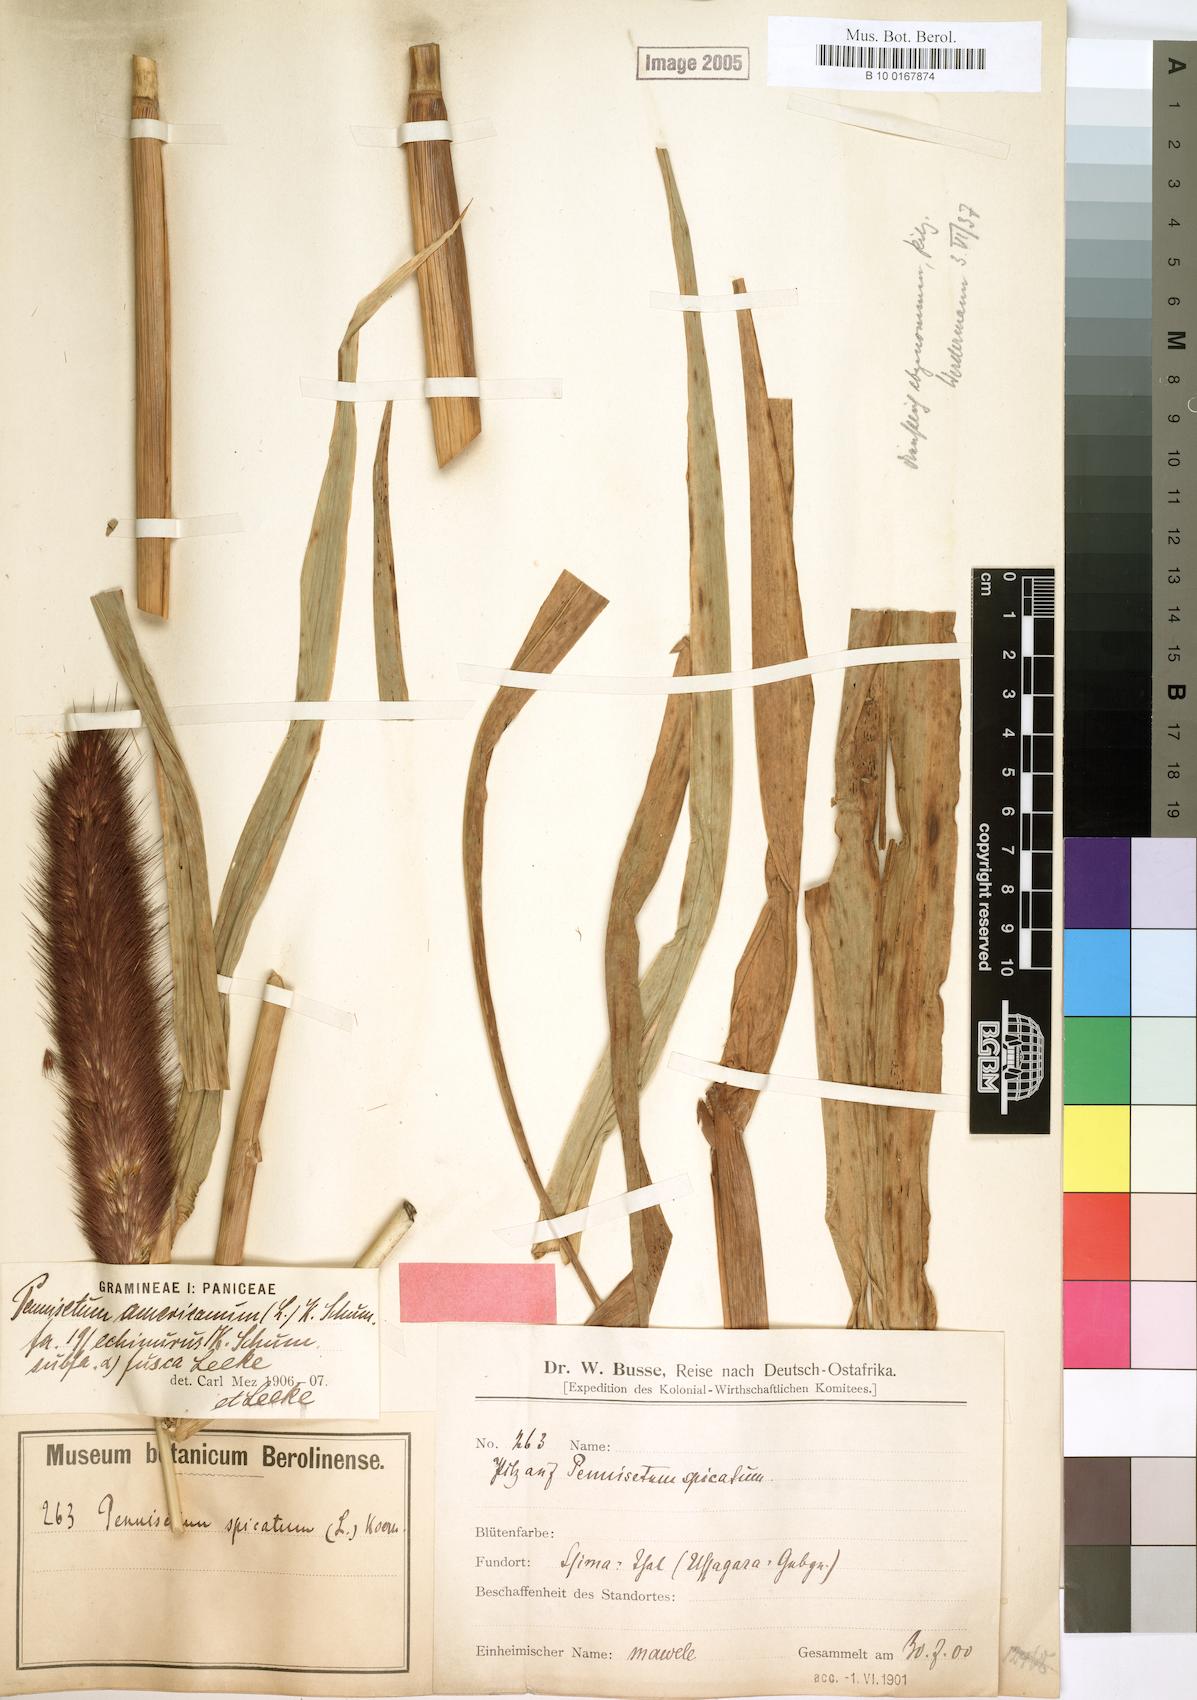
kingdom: Plantae
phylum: Tracheophyta
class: Liliopsida
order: Poales
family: Poaceae
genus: Cenchrus
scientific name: Cenchrus americanus
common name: Pearl millet
